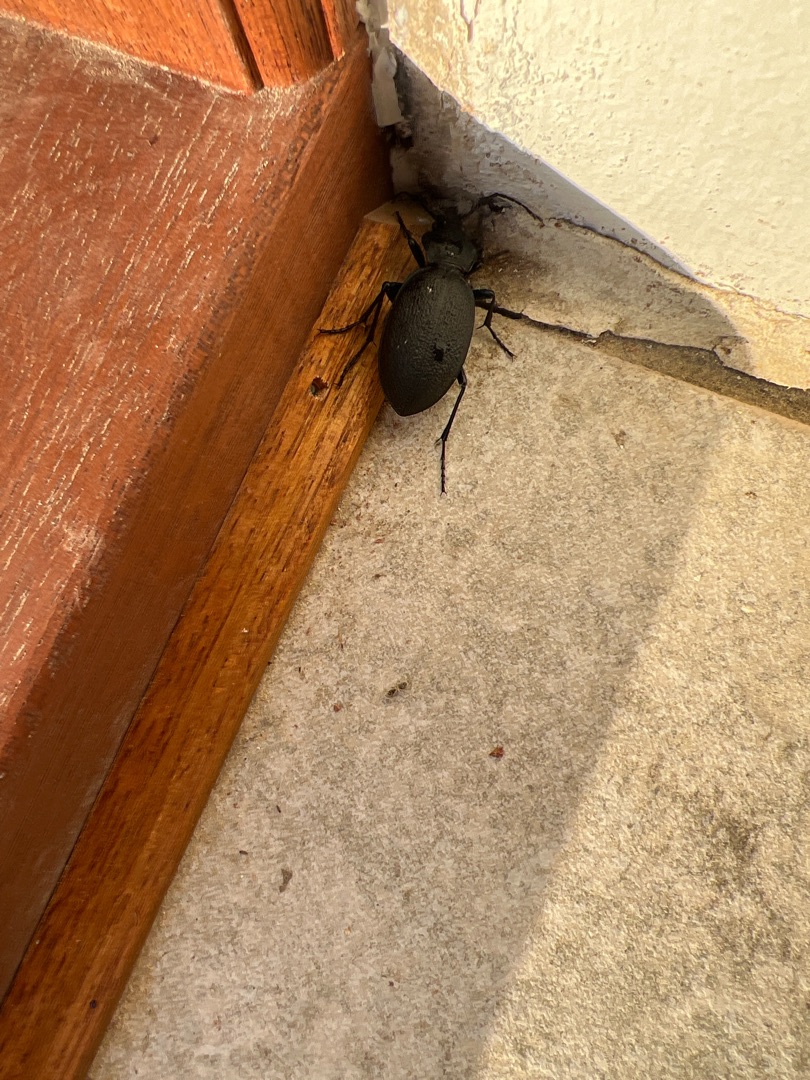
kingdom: Animalia
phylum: Arthropoda
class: Insecta
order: Coleoptera
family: Carabidae
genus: Carabus
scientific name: Carabus coriaceus
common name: Læderløber
